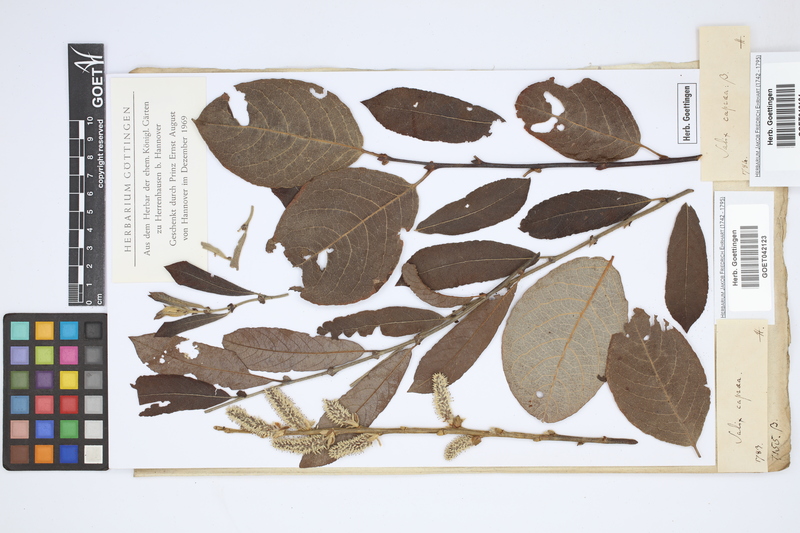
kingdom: Plantae
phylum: Tracheophyta
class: Magnoliopsida
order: Malpighiales
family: Salicaceae
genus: Salix
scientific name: Salix caprea
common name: Goat willow
